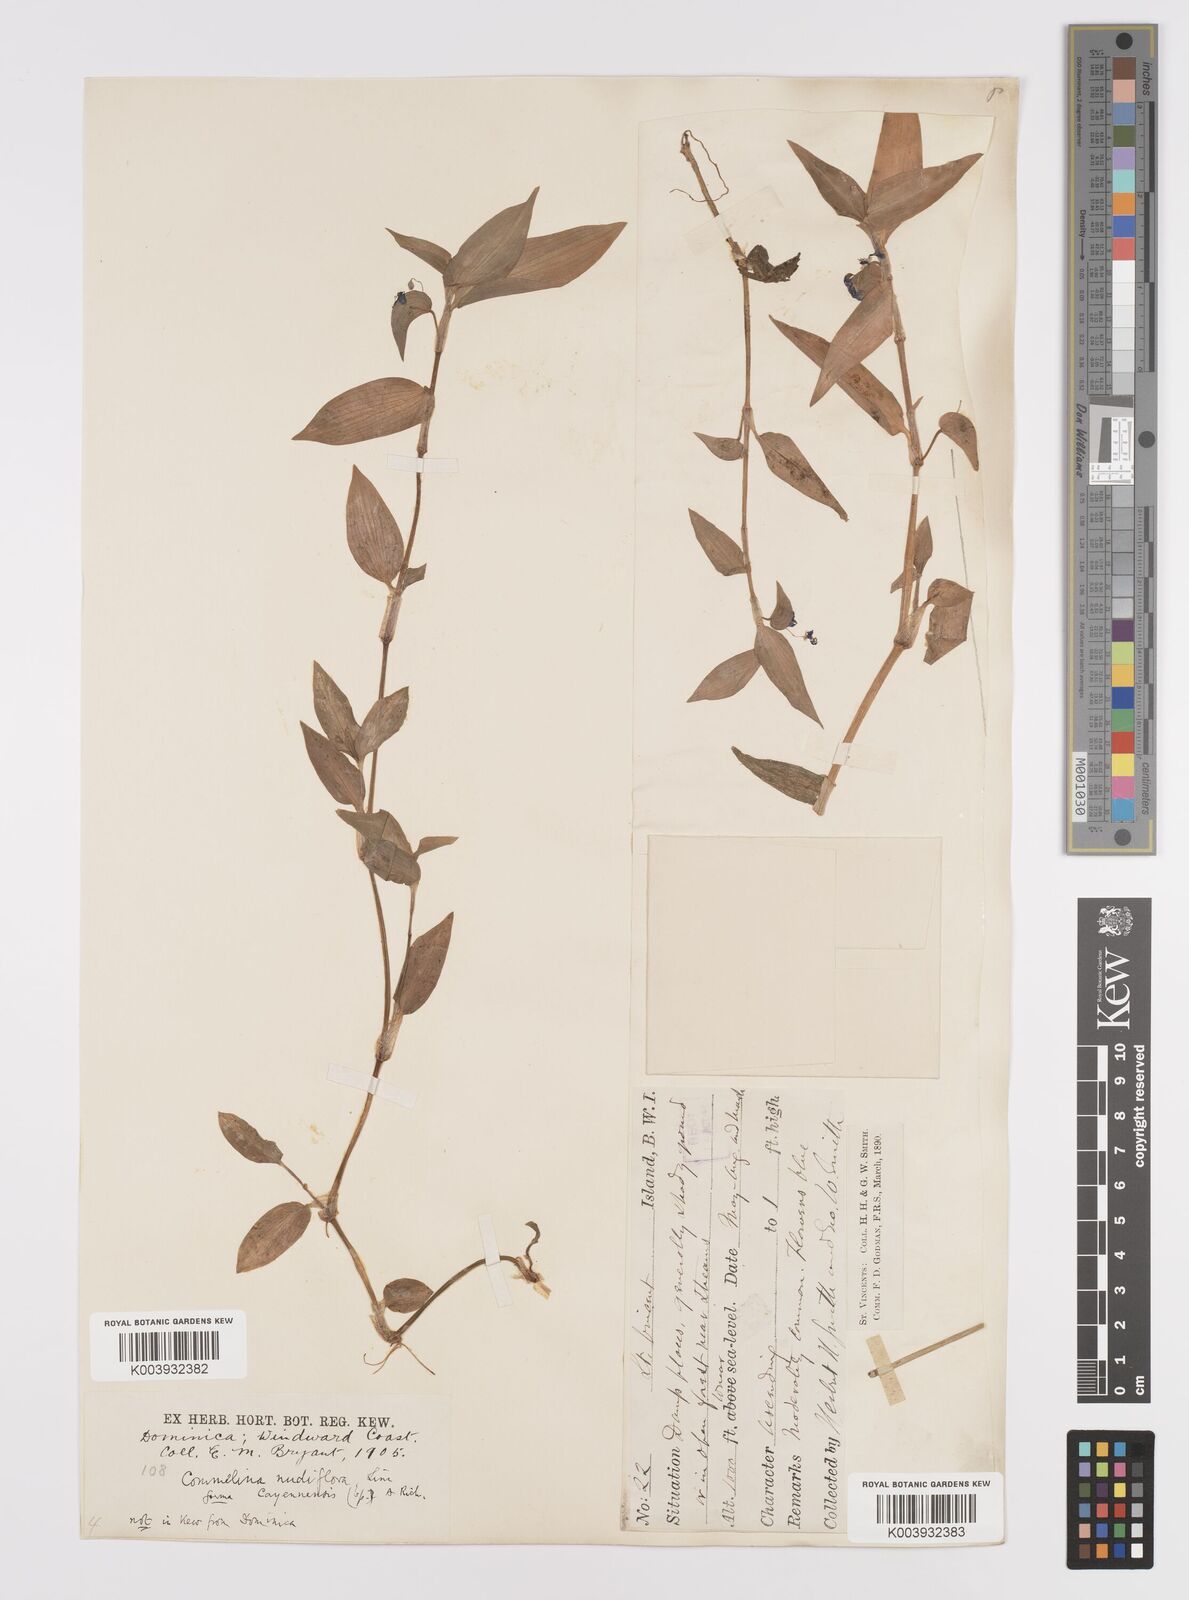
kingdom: Plantae
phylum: Tracheophyta
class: Liliopsida
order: Commelinales
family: Commelinaceae
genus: Commelina
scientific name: Commelina
